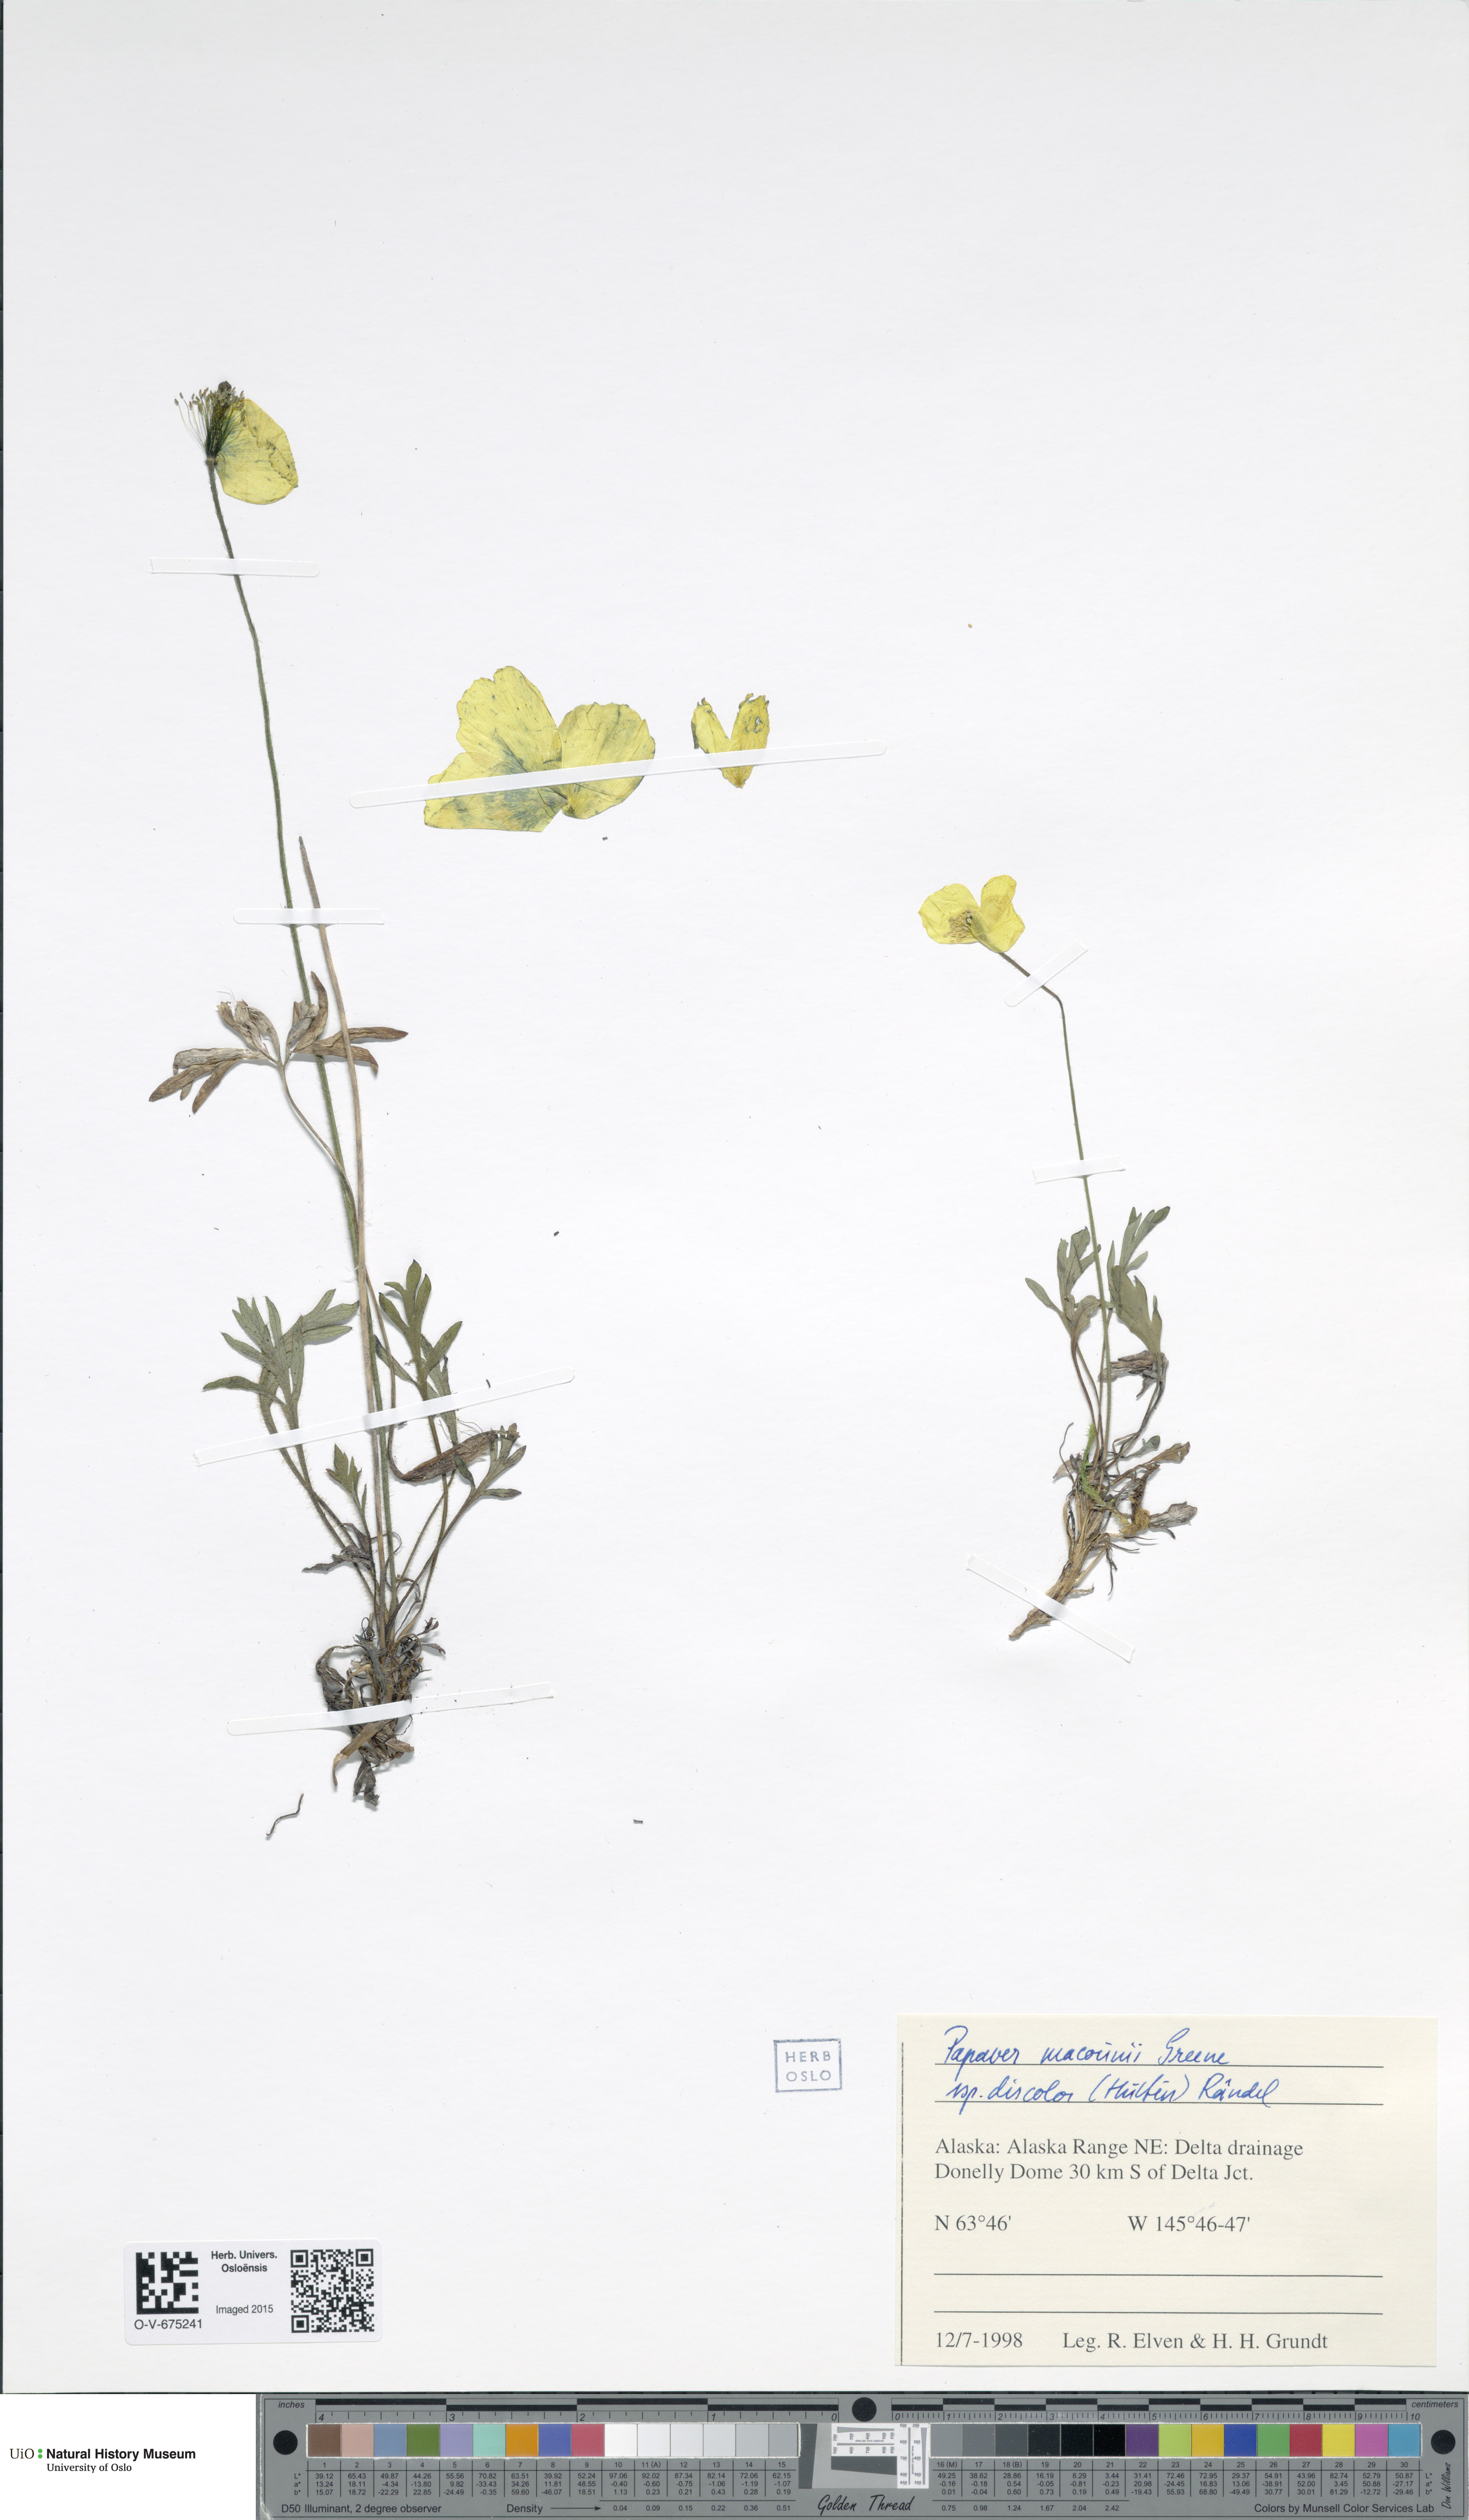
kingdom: Plantae
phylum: Tracheophyta
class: Magnoliopsida
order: Ranunculales
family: Papaveraceae
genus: Papaver
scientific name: Papaver macounii
